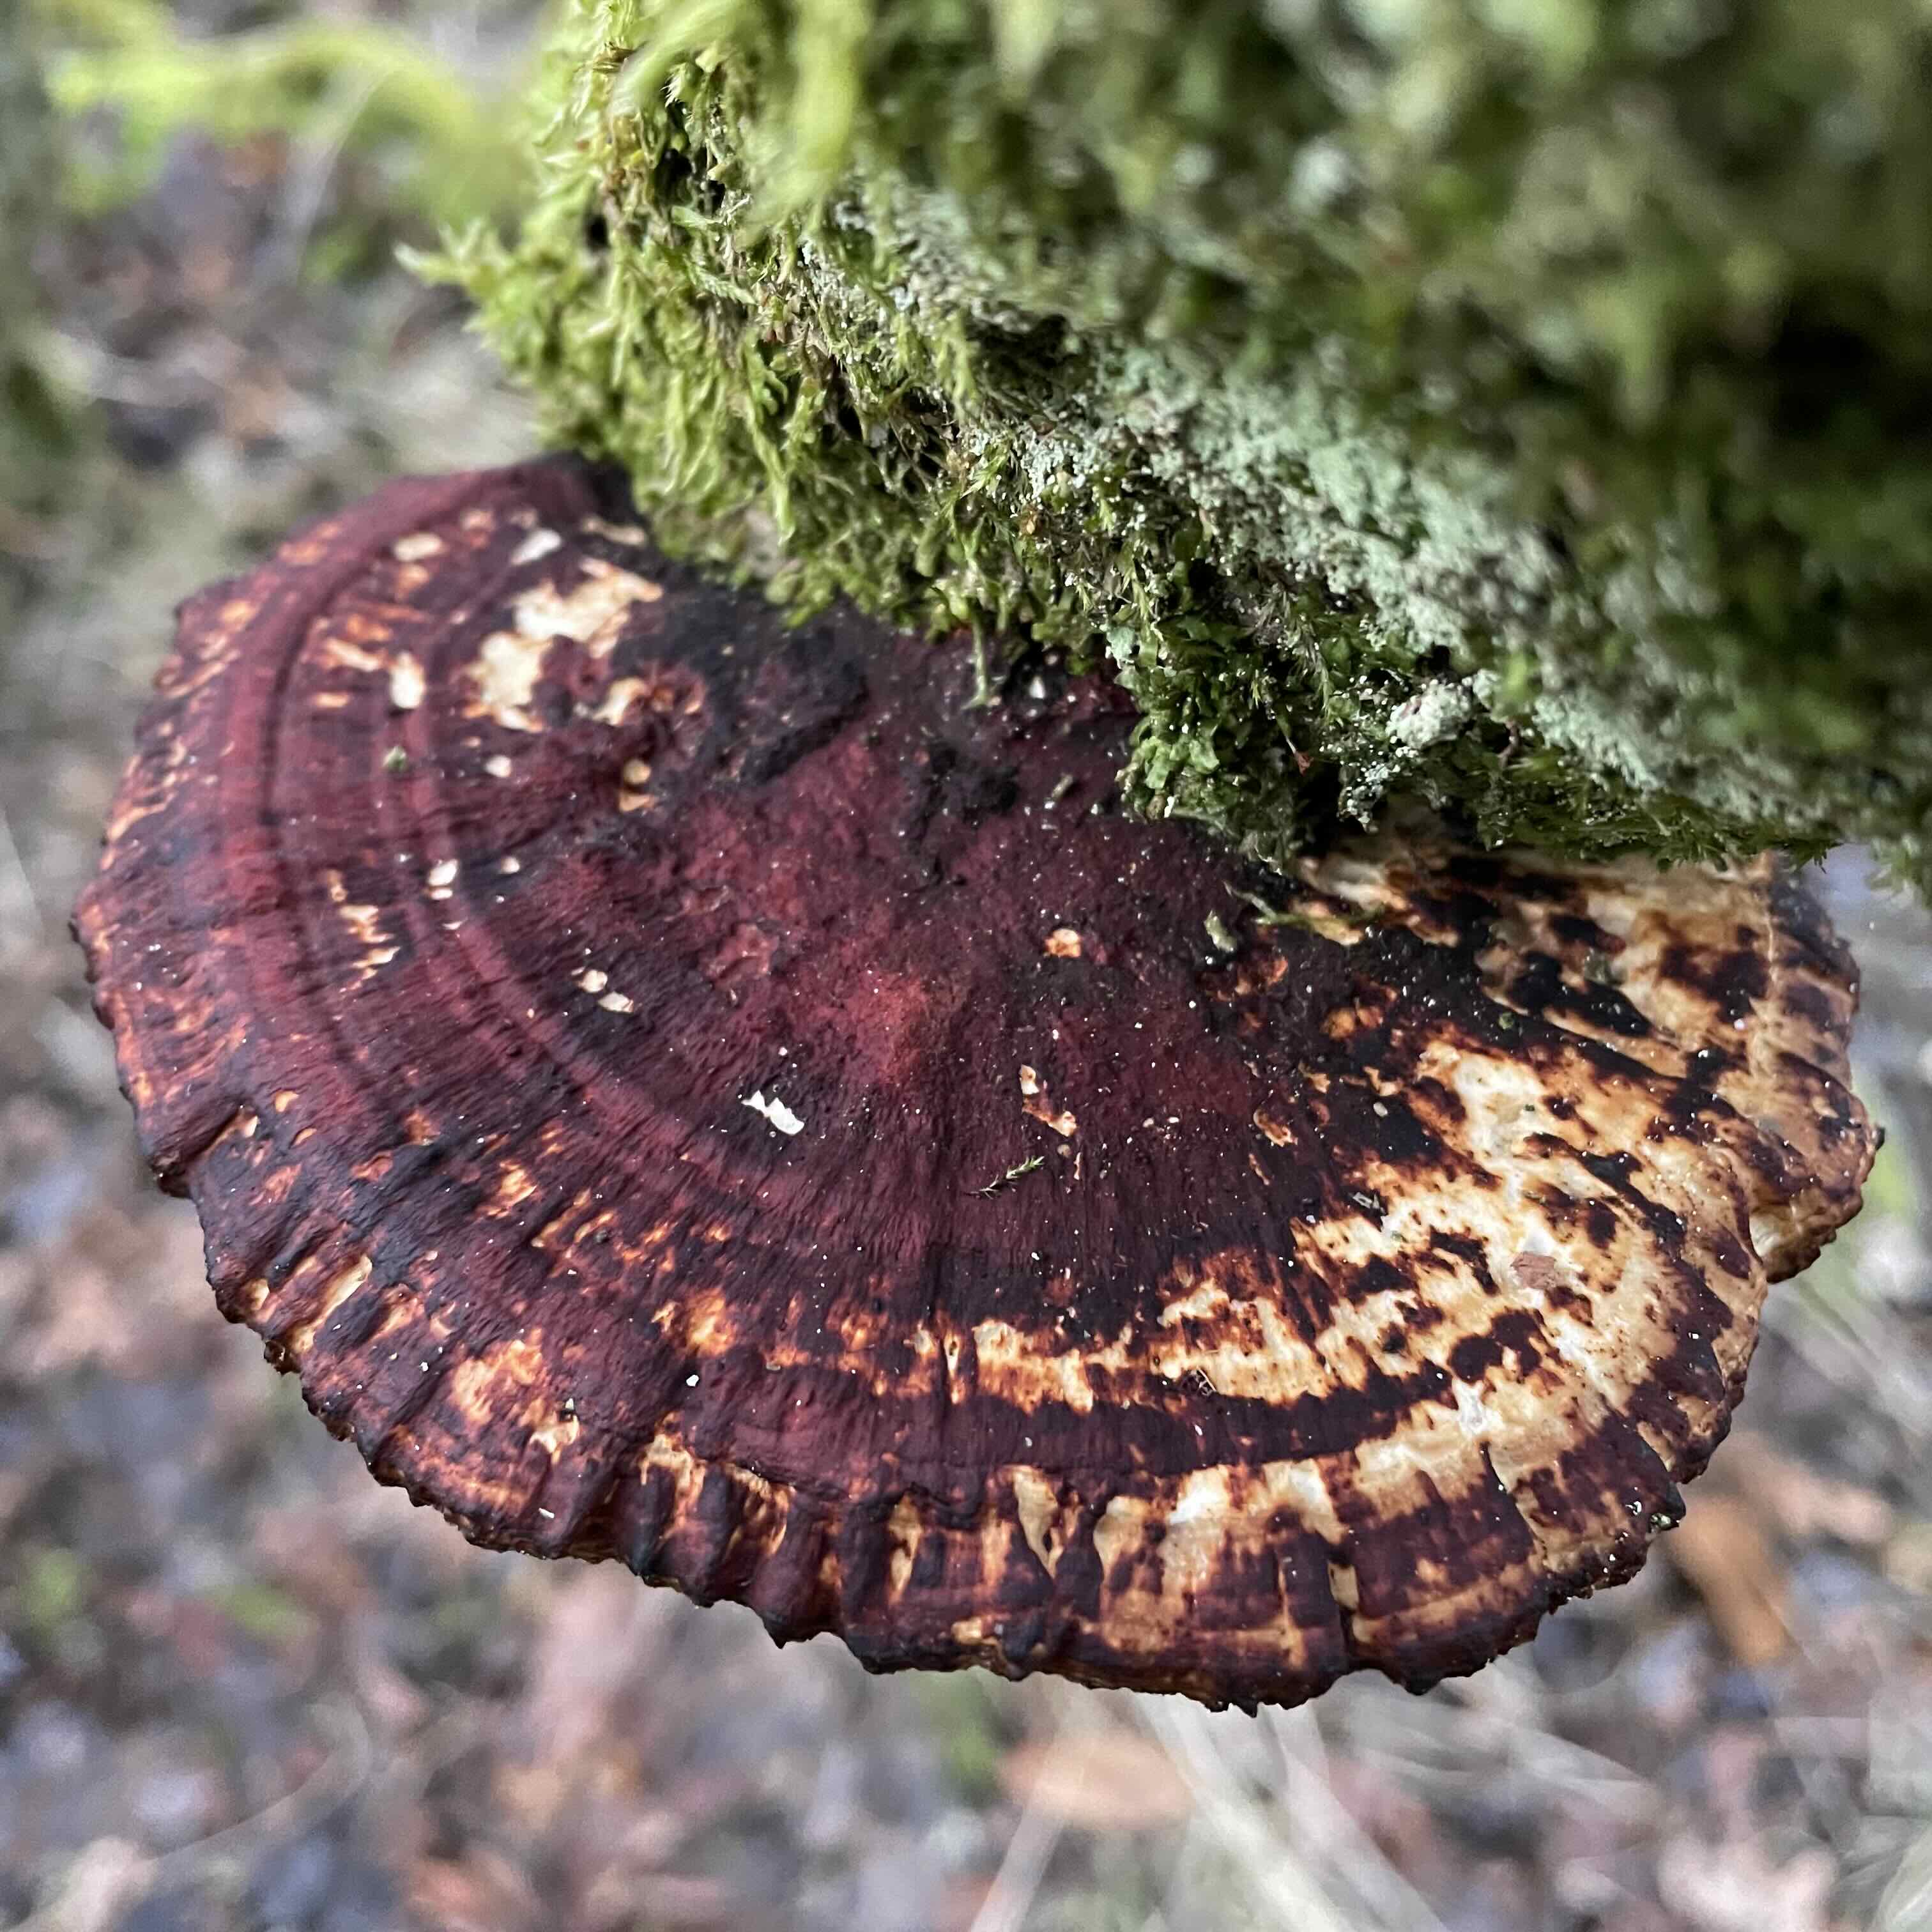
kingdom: Fungi
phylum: Basidiomycota
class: Agaricomycetes
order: Polyporales
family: Polyporaceae
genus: Daedaleopsis
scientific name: Daedaleopsis confragosa
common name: rødmende læderporesvamp
